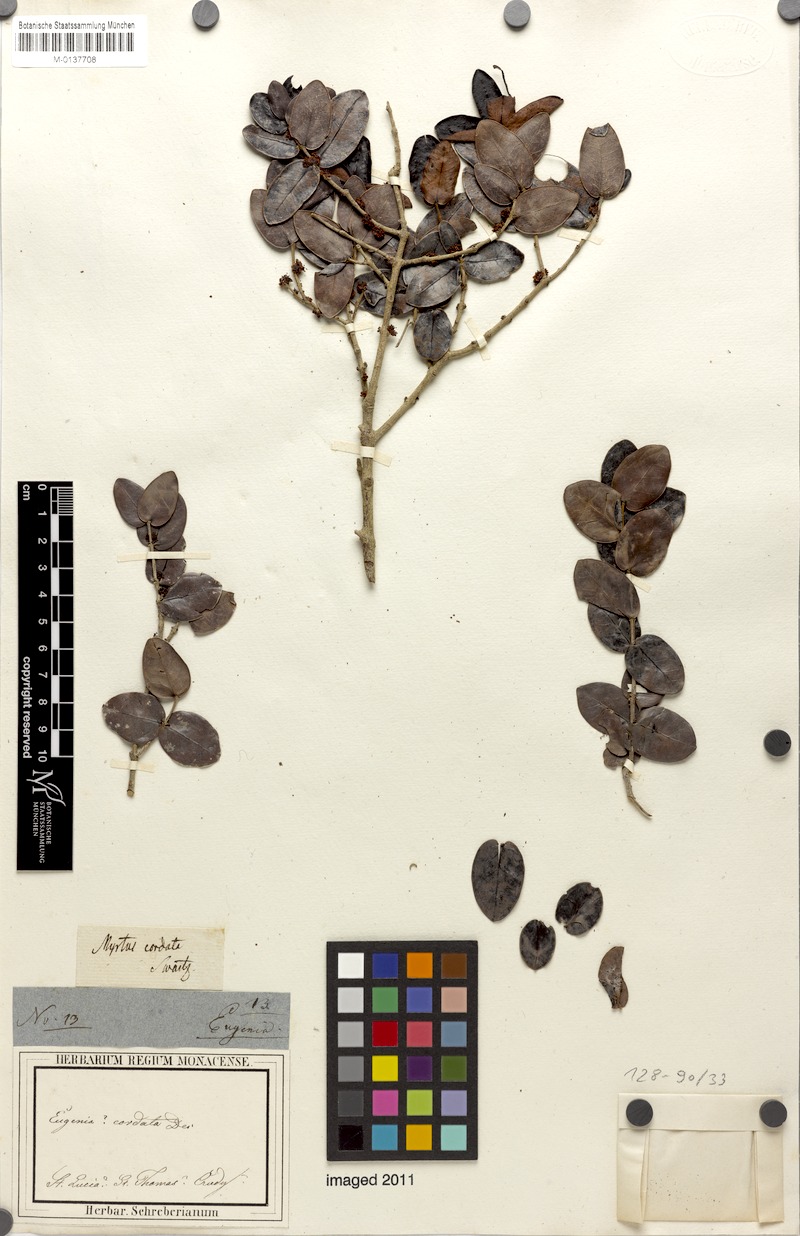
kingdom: Plantae
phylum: Tracheophyta
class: Magnoliopsida
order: Myrtales
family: Myrtaceae
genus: Eugenia
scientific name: Eugenia cordata
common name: Lathberry
